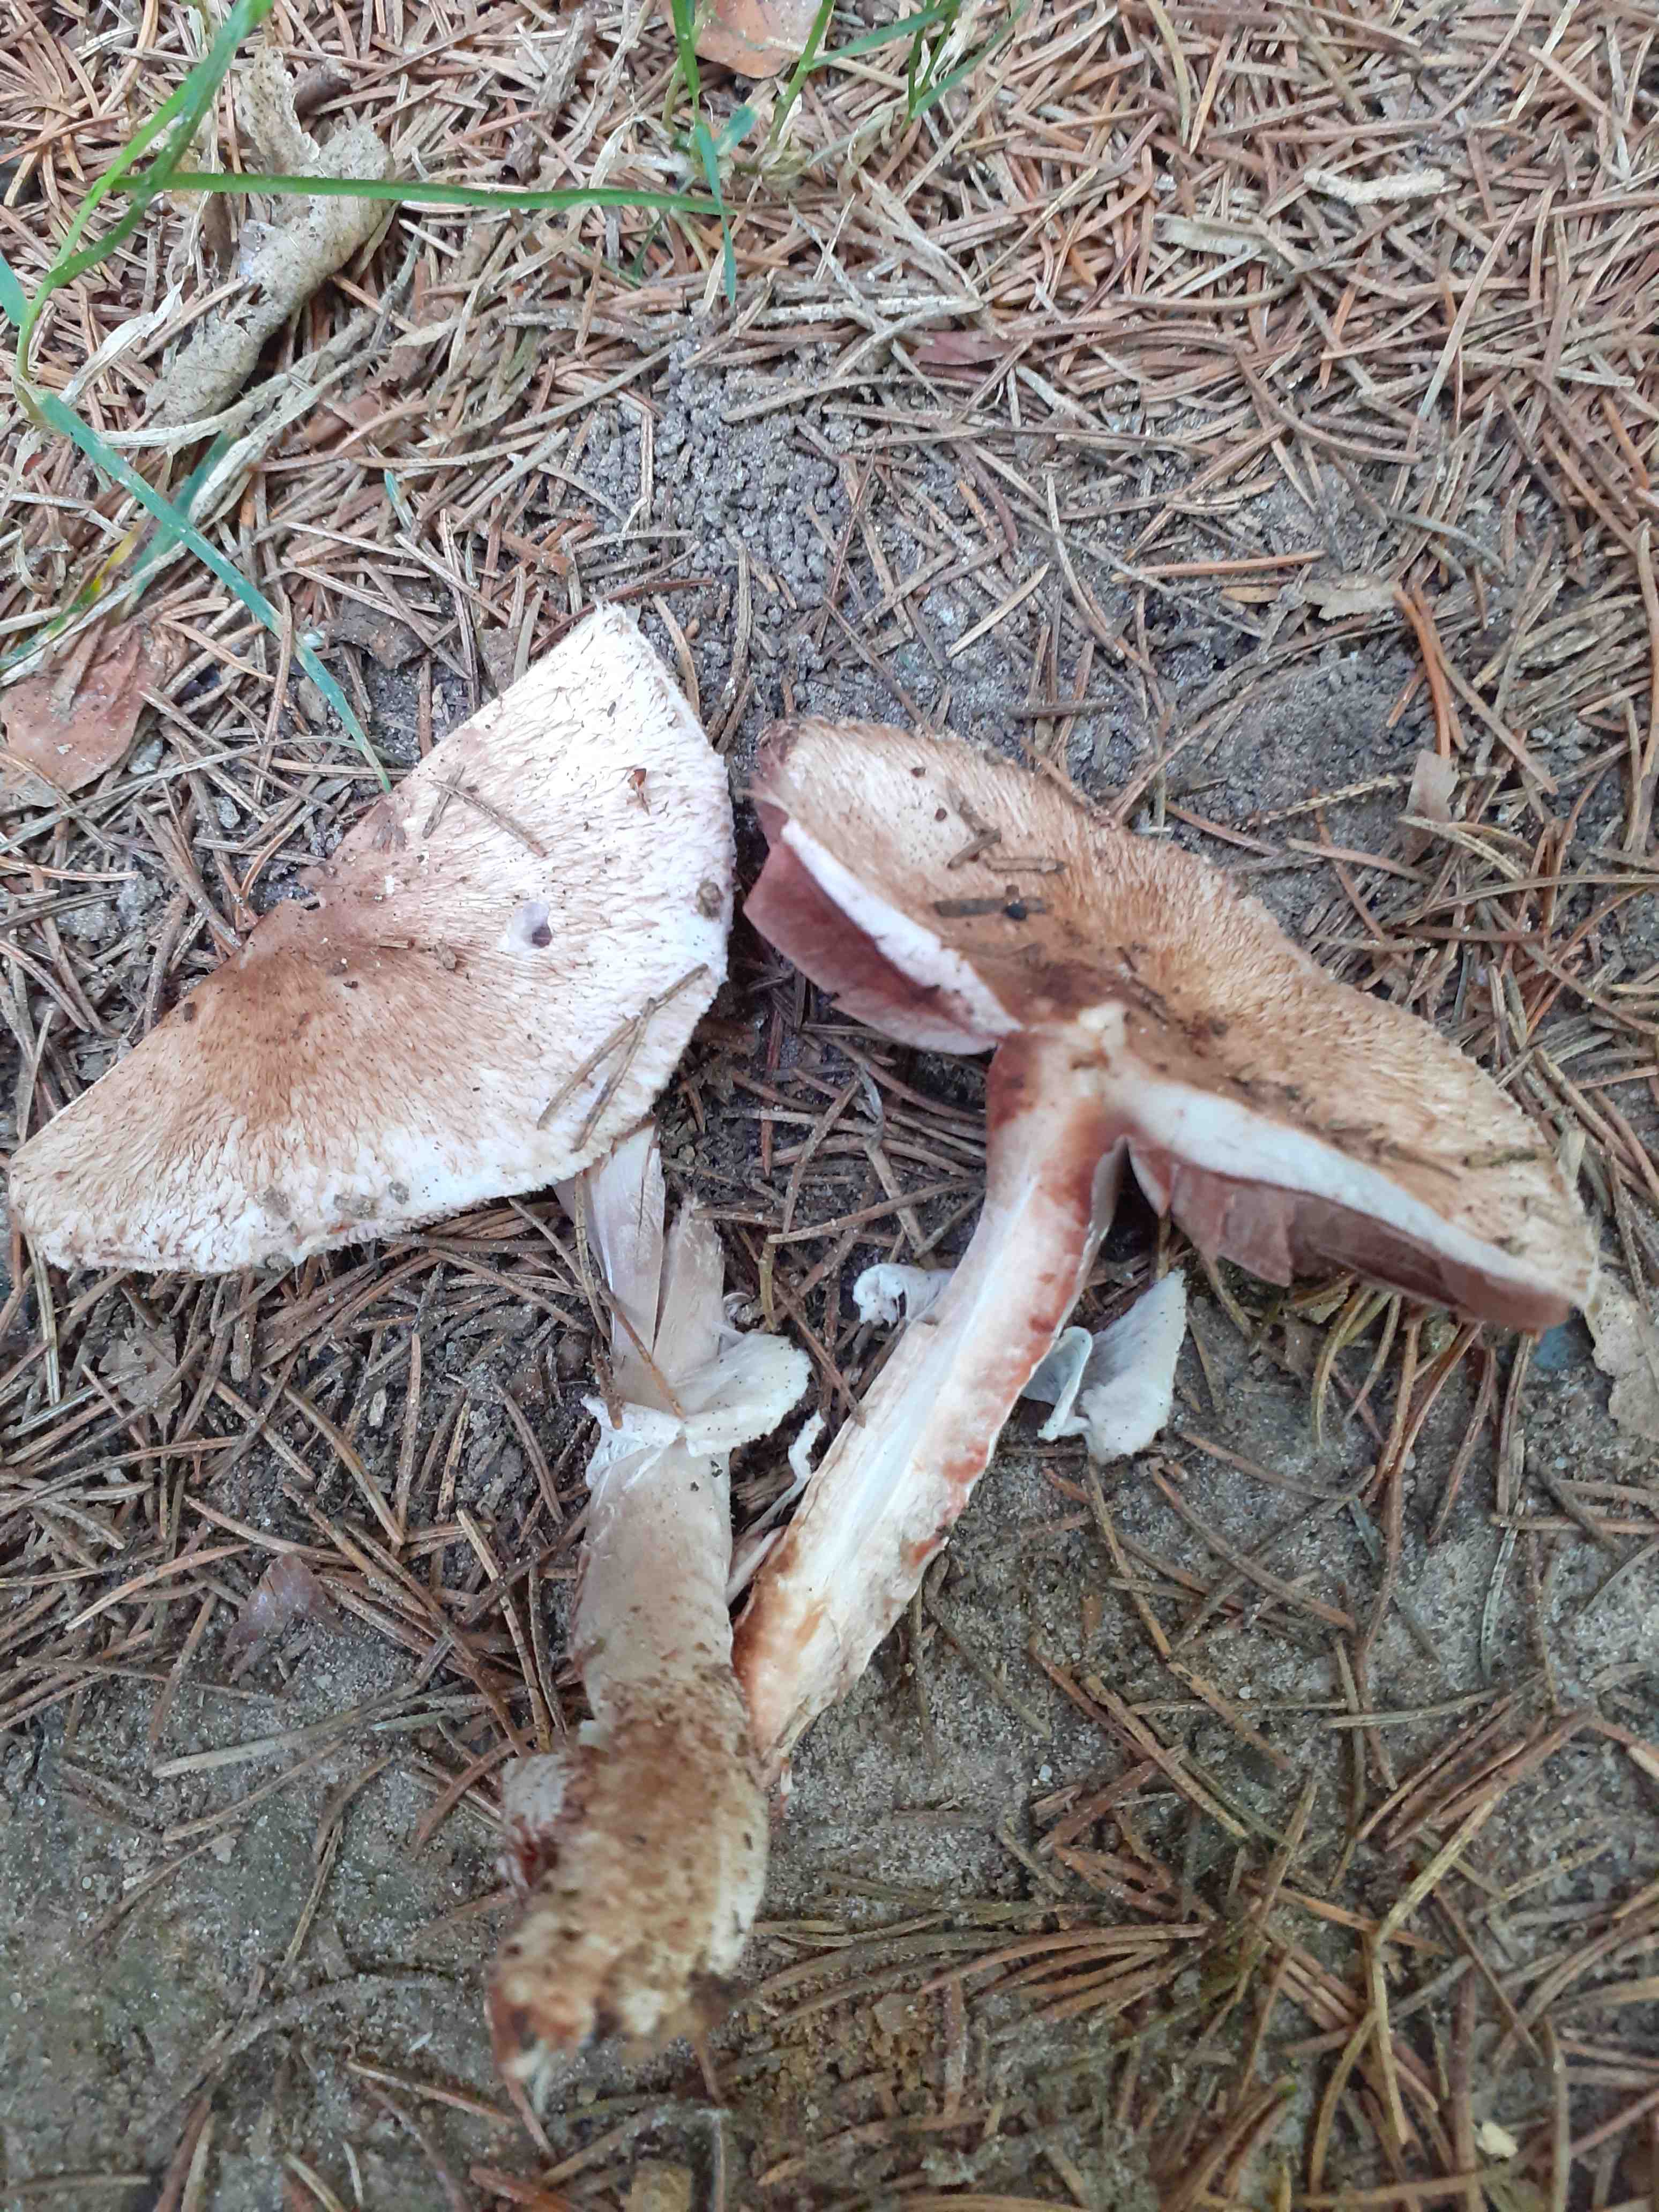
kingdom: Fungi
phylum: Basidiomycota
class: Agaricomycetes
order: Agaricales
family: Agaricaceae
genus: Agaricus
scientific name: Agaricus sylvaticus
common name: lille blod-champignon
